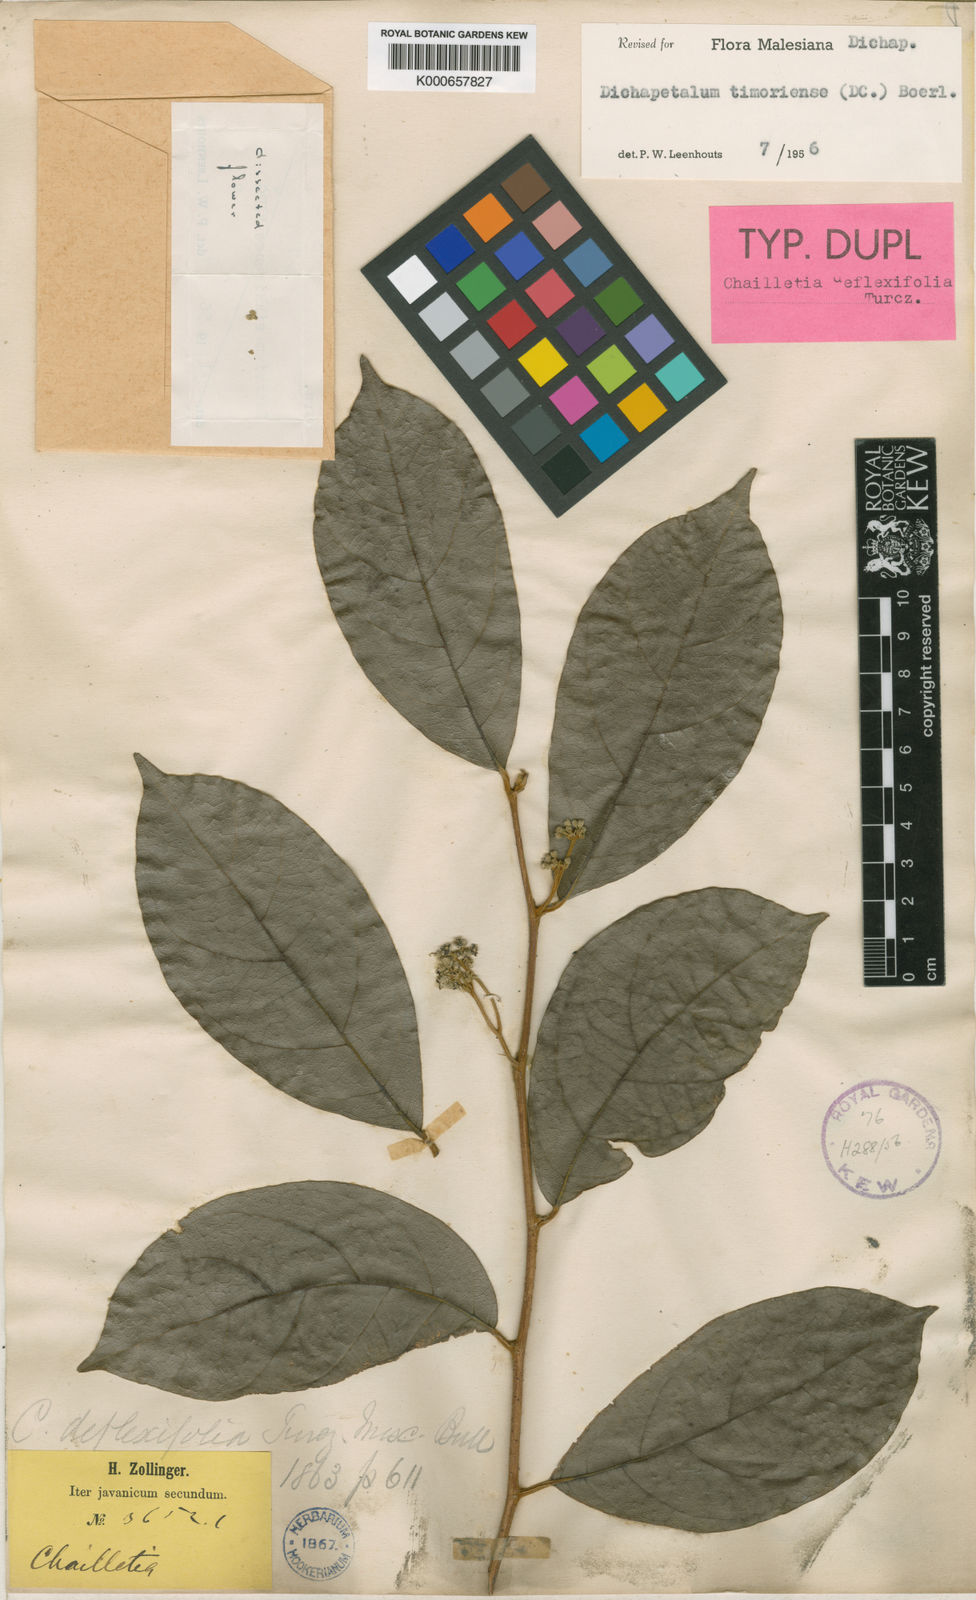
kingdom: Plantae
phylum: Tracheophyta
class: Magnoliopsida
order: Malpighiales
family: Dichapetalaceae
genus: Dichapetalum
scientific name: Dichapetalum timoriense
